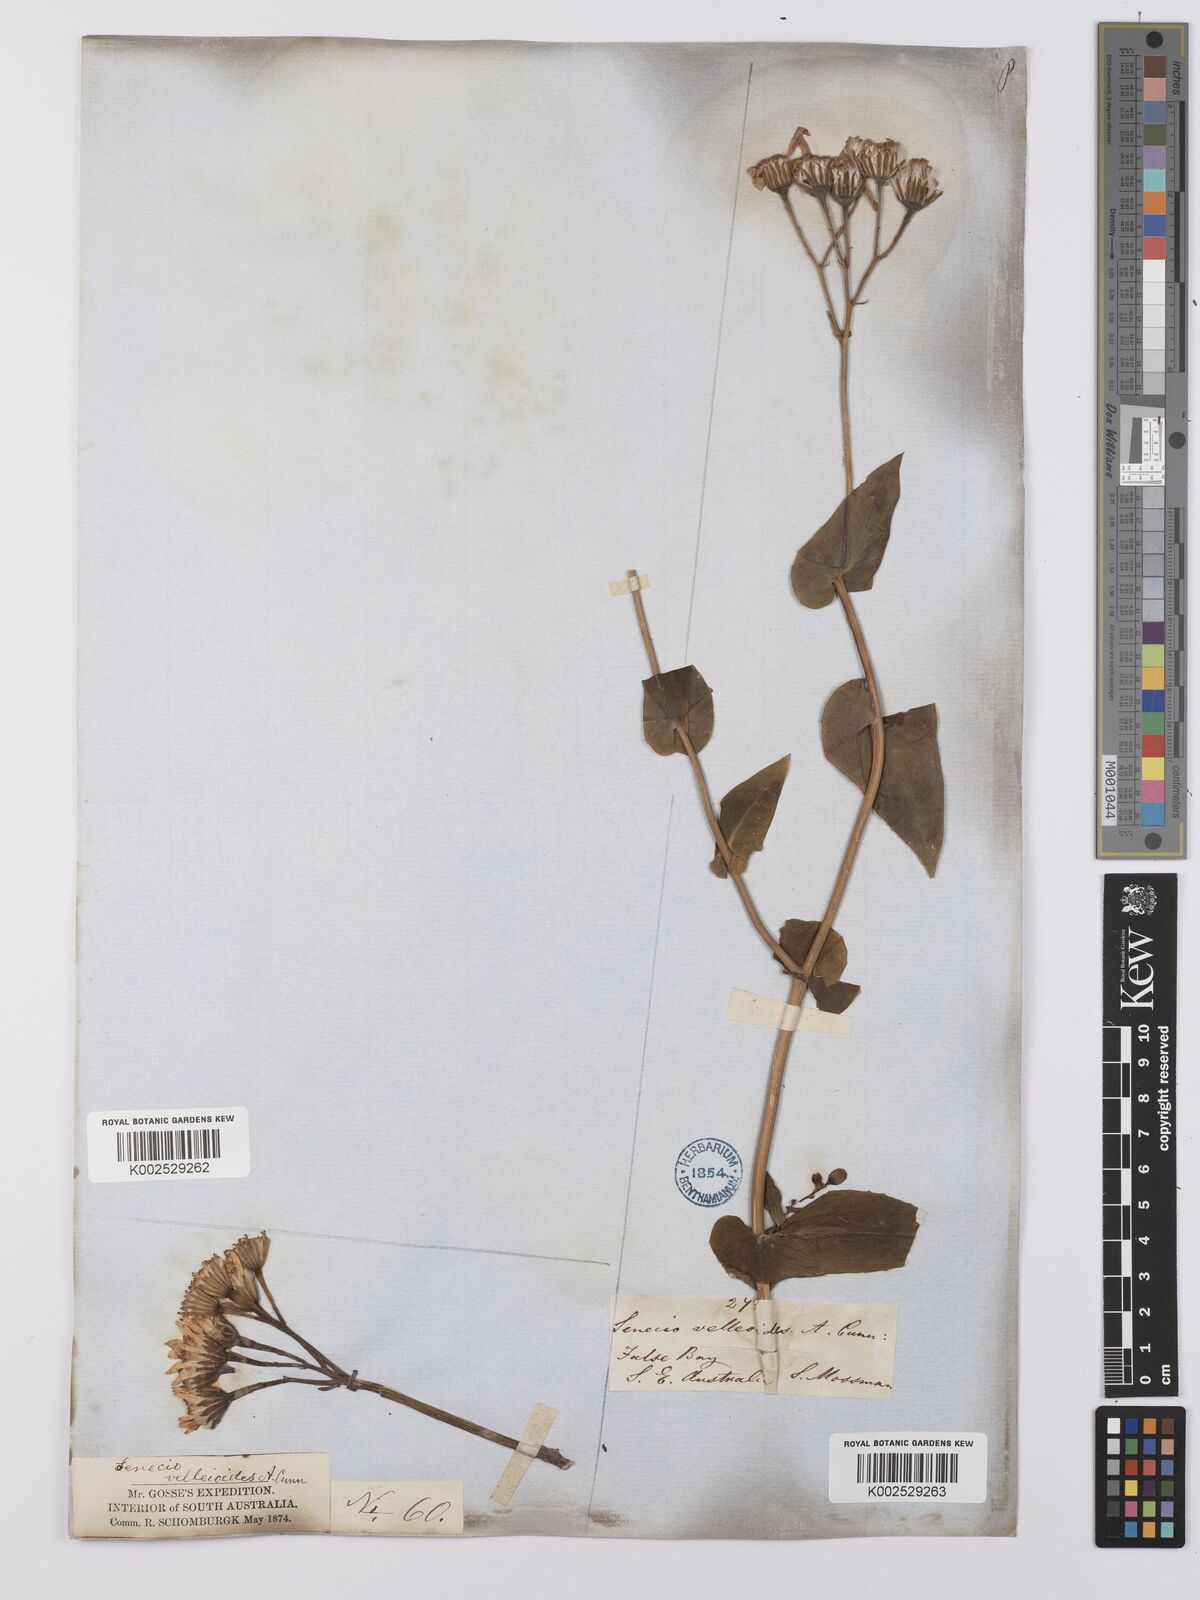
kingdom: Plantae
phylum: Tracheophyta
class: Magnoliopsida
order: Asterales
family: Asteraceae
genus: Lordhowea
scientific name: Lordhowea velleioides
